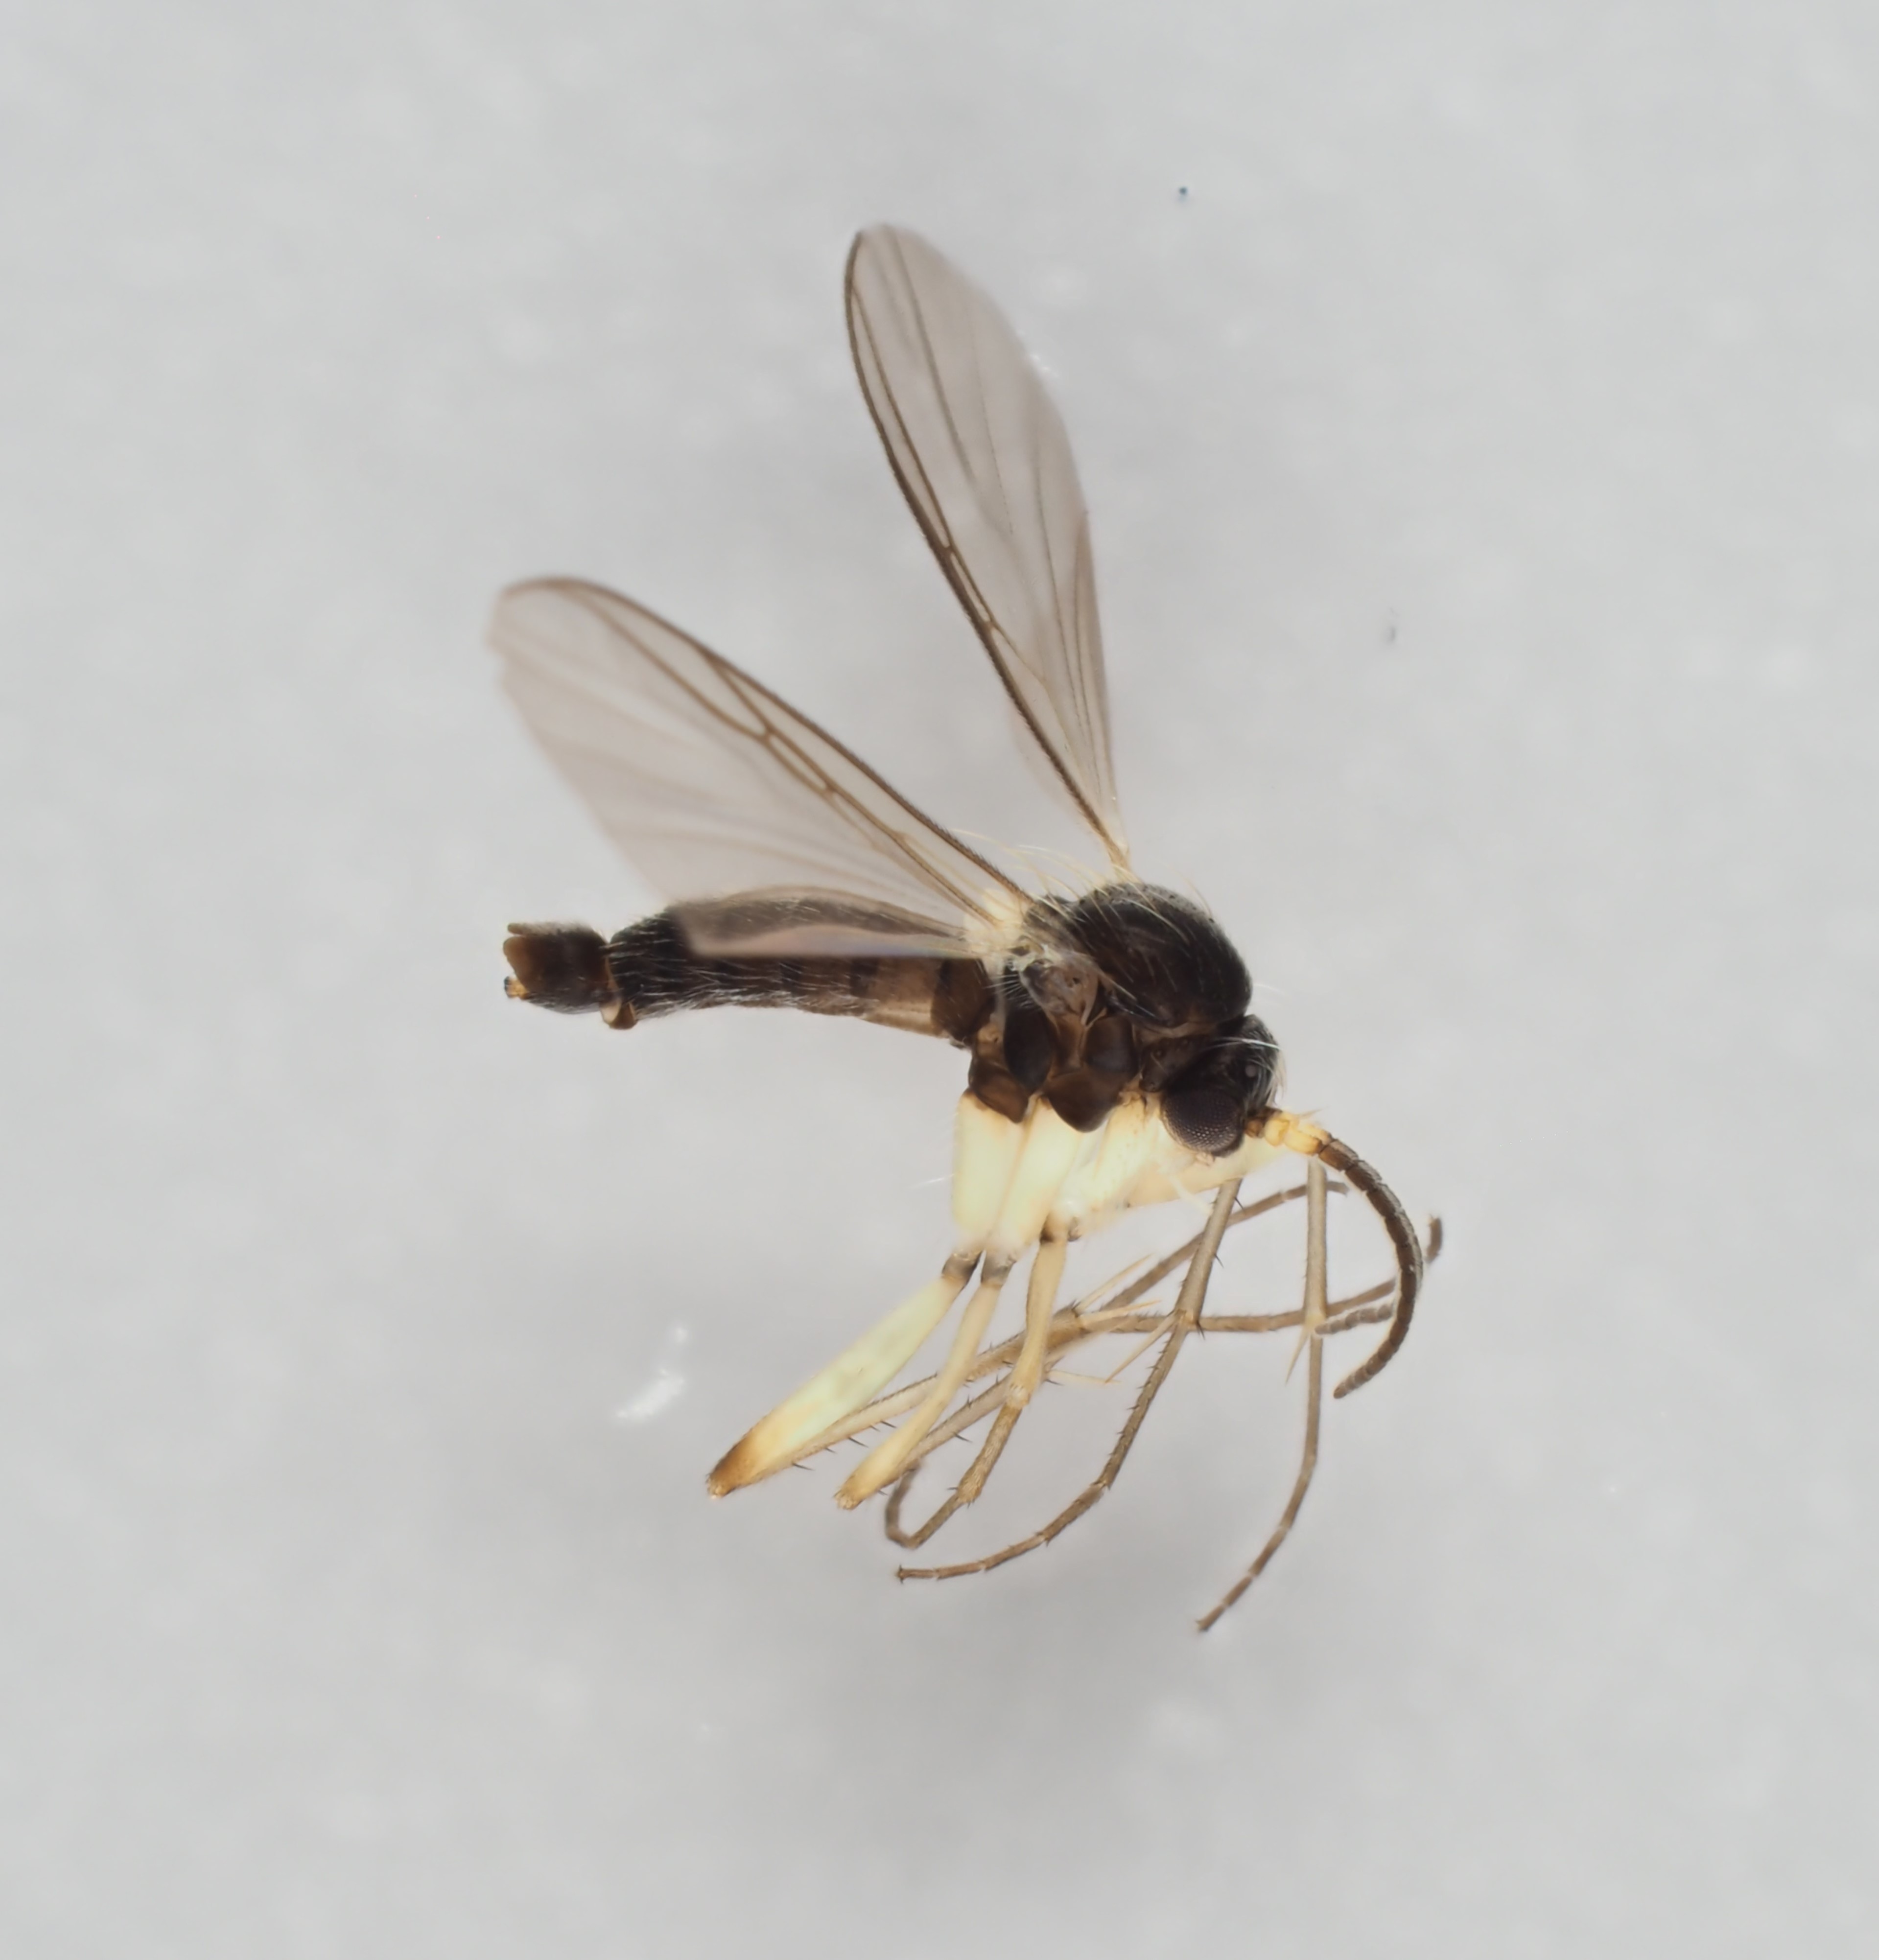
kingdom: Animalia
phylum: Arthropoda
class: Insecta
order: Diptera
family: Mycetophilidae
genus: Ectrepesthoneura
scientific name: Ectrepesthoneura pubescens
